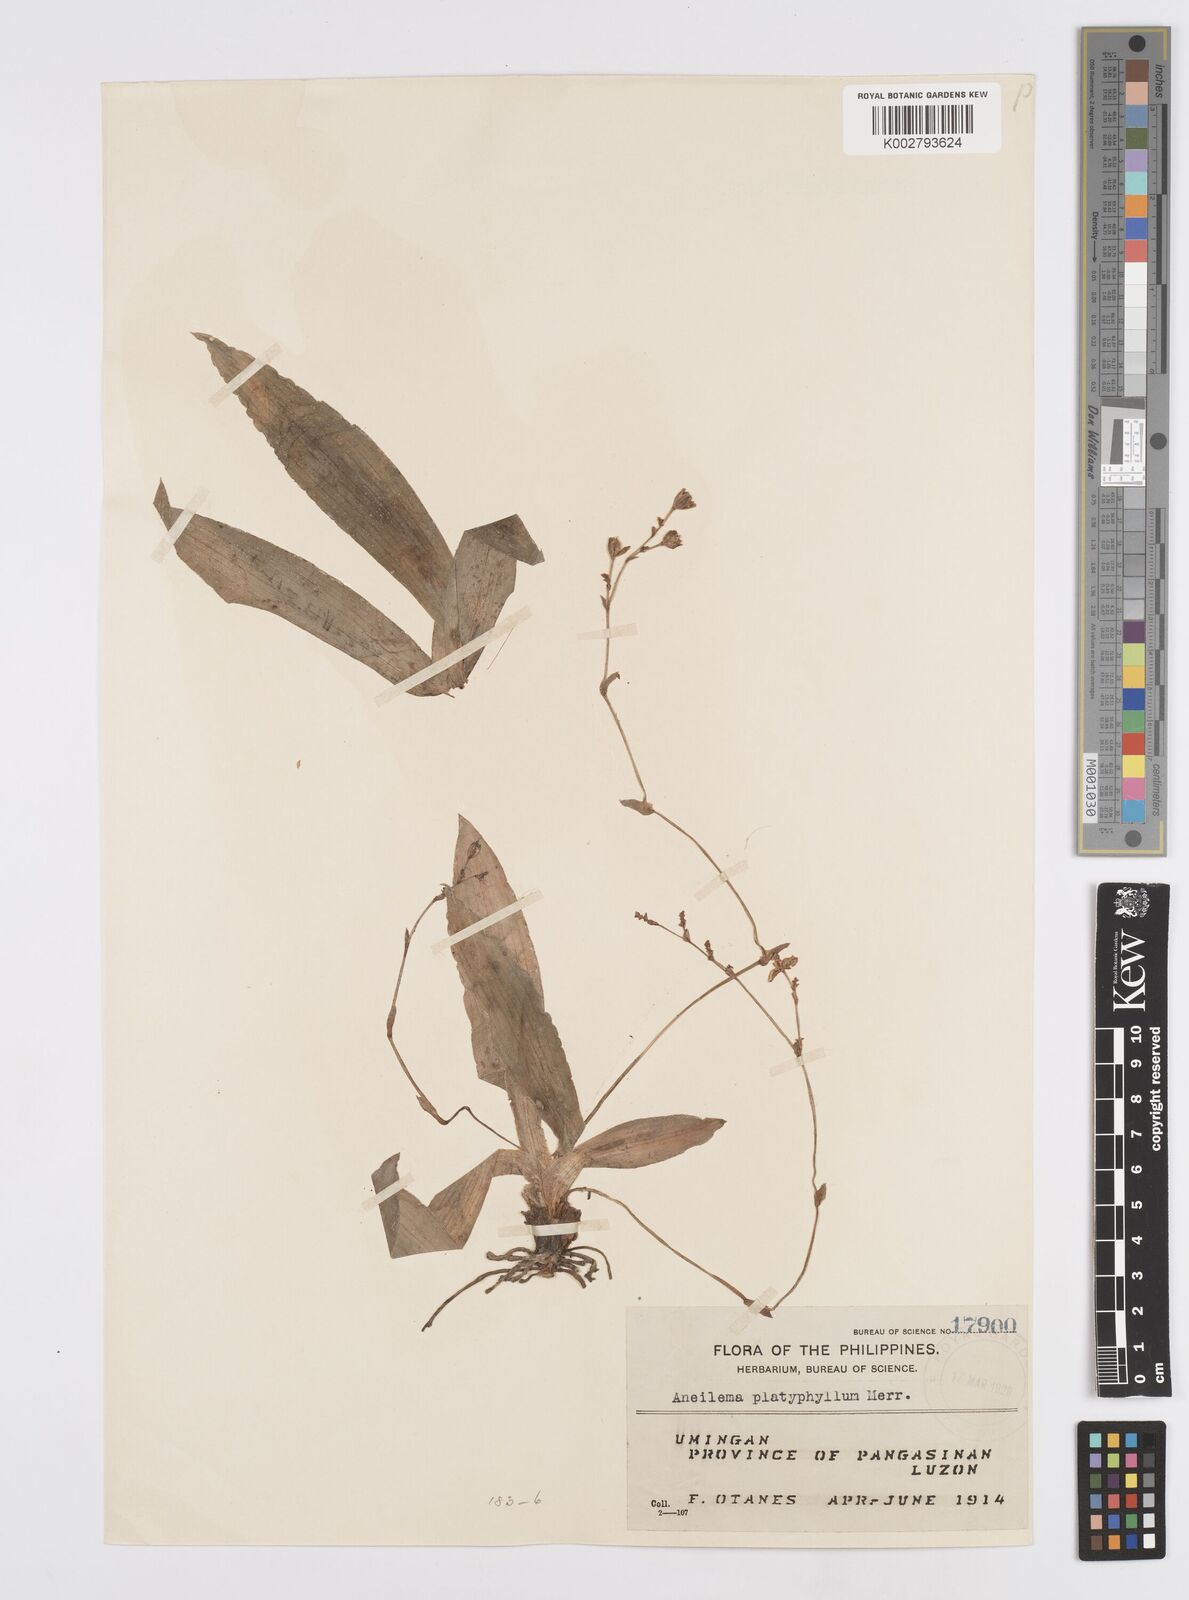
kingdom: Plantae
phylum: Tracheophyta
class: Liliopsida
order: Commelinales
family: Commelinaceae
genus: Murdannia
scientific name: Murdannia
